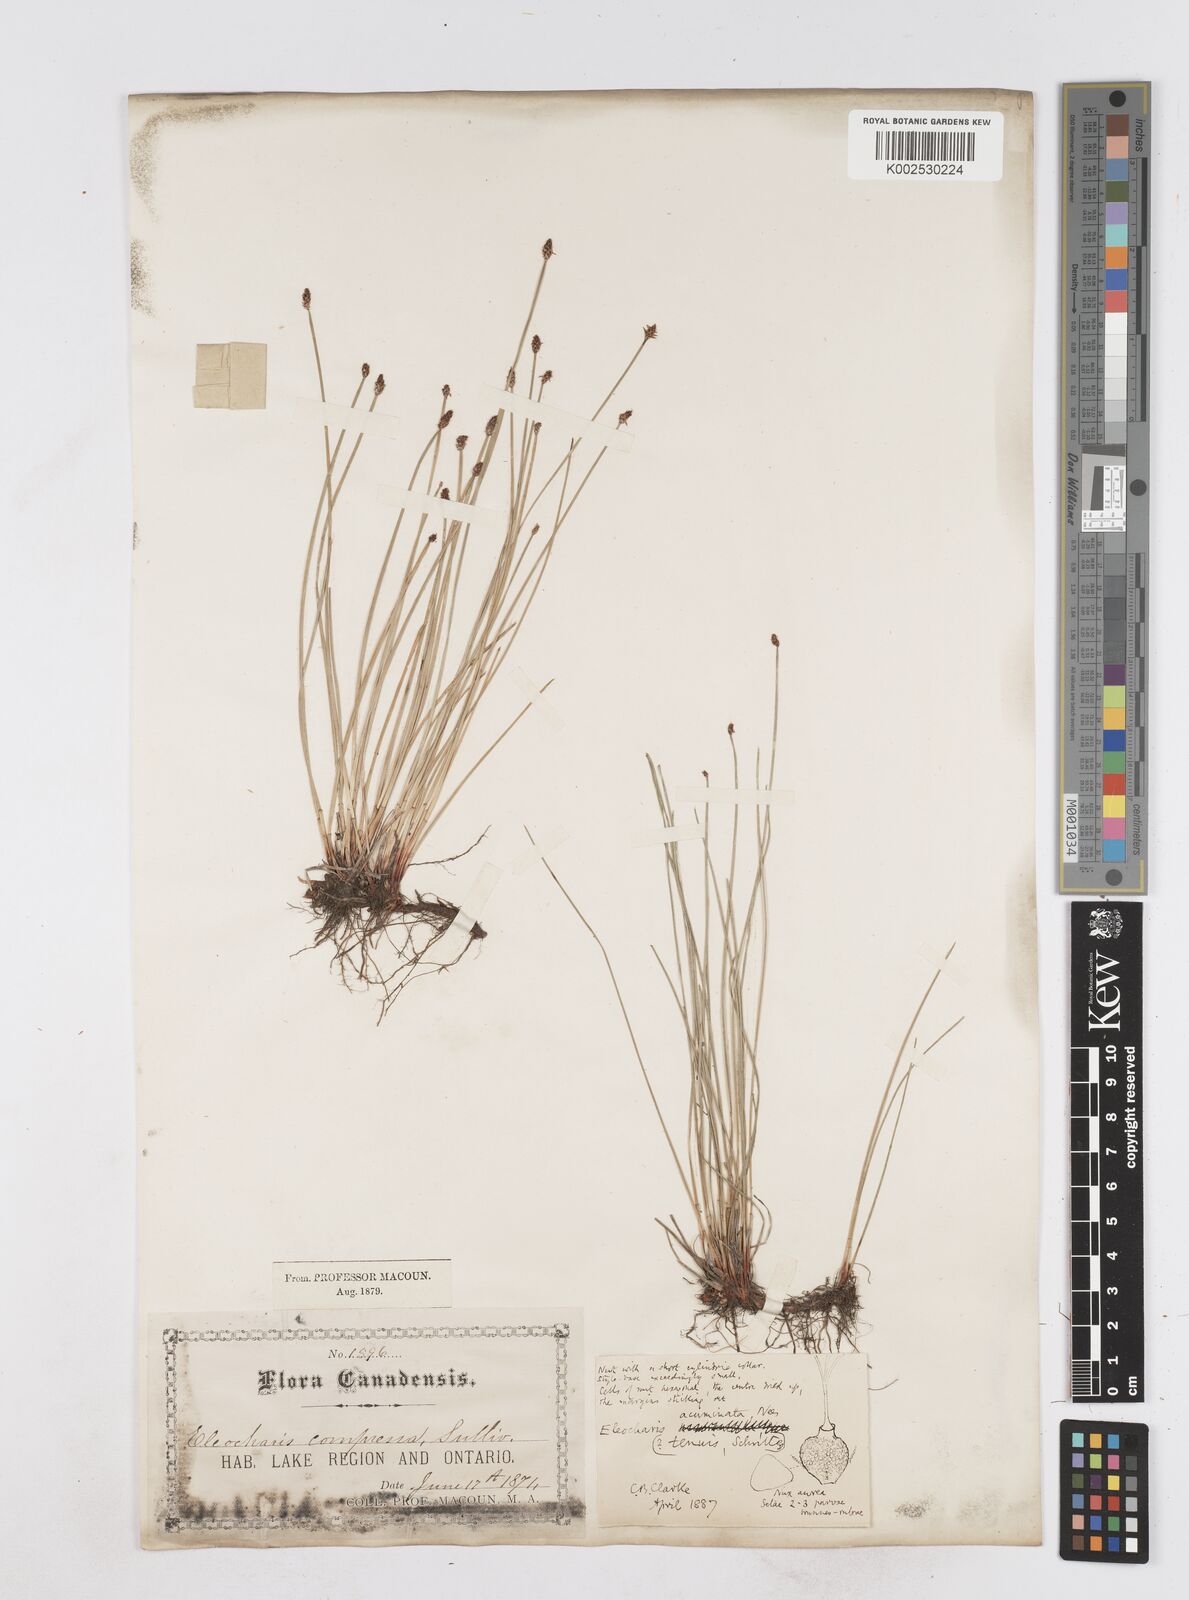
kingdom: Plantae
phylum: Tracheophyta
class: Liliopsida
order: Poales
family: Cyperaceae
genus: Eleocharis
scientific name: Eleocharis compressa
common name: Flat-stem spike-rush
